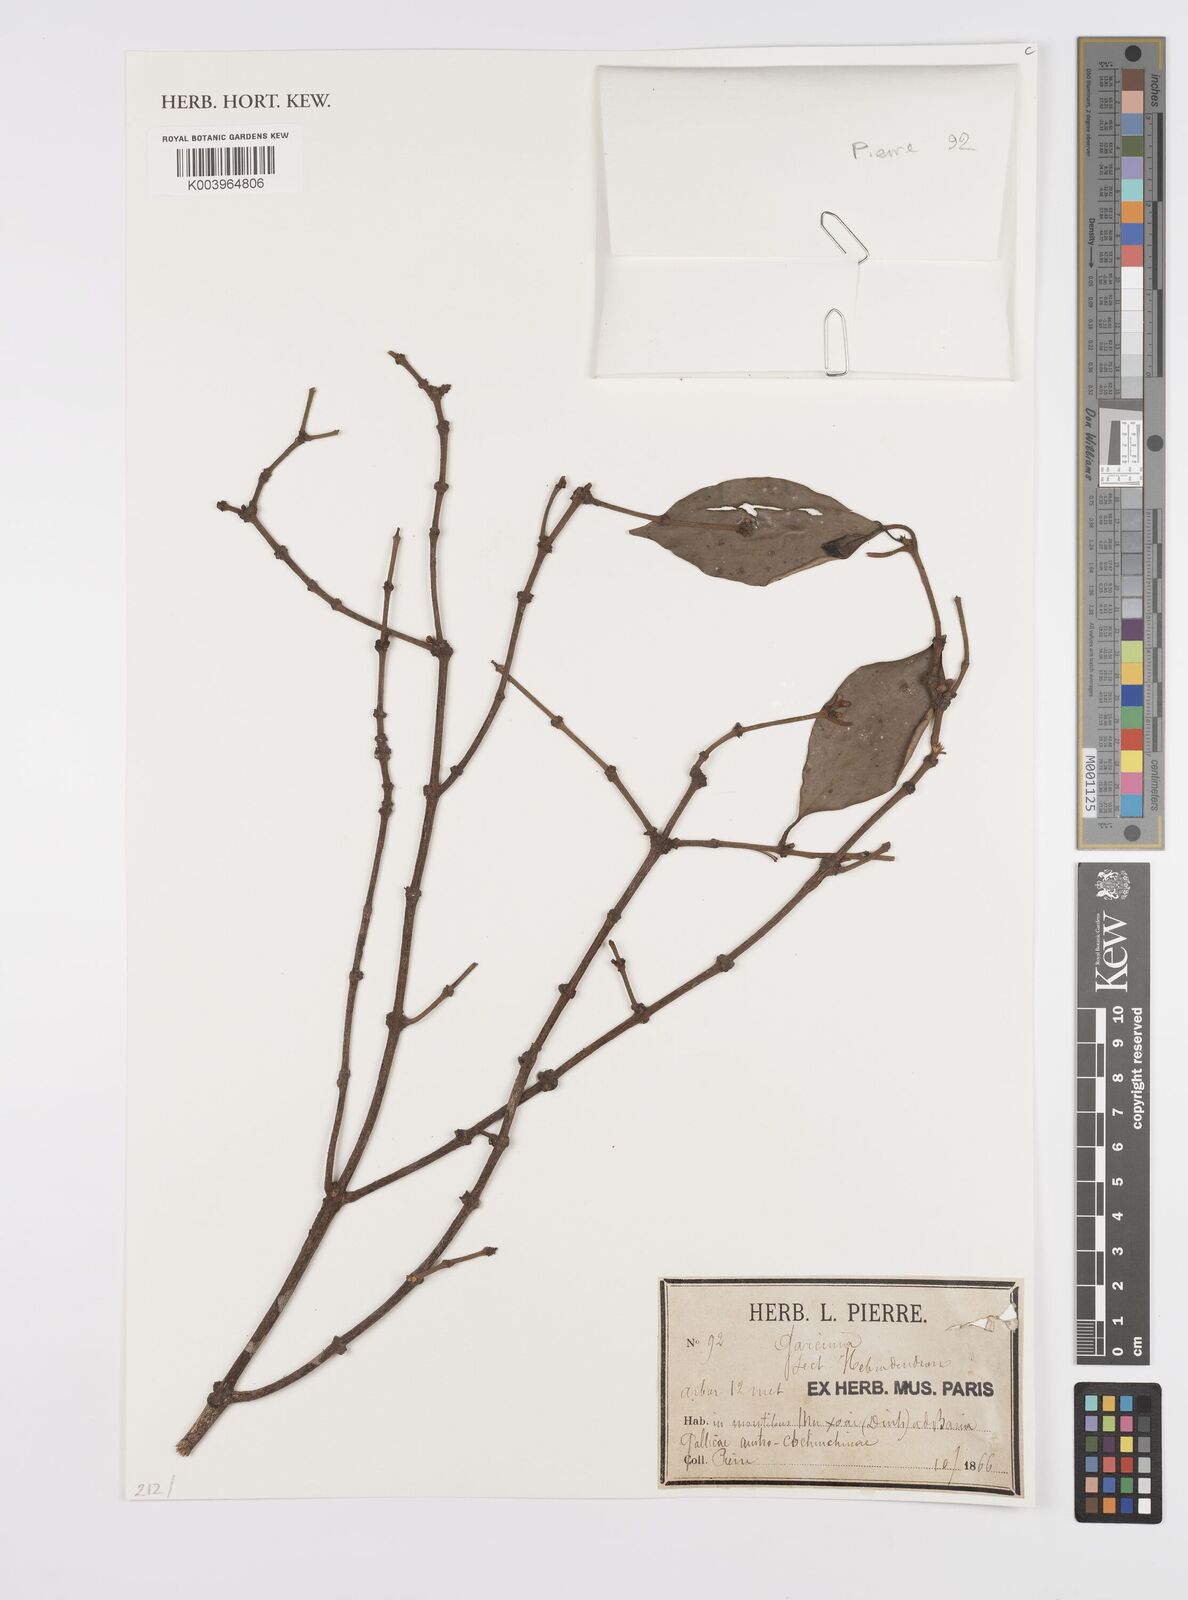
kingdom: Plantae
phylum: Tracheophyta
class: Magnoliopsida
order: Malpighiales
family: Clusiaceae
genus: Garcinia
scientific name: Garcinia
